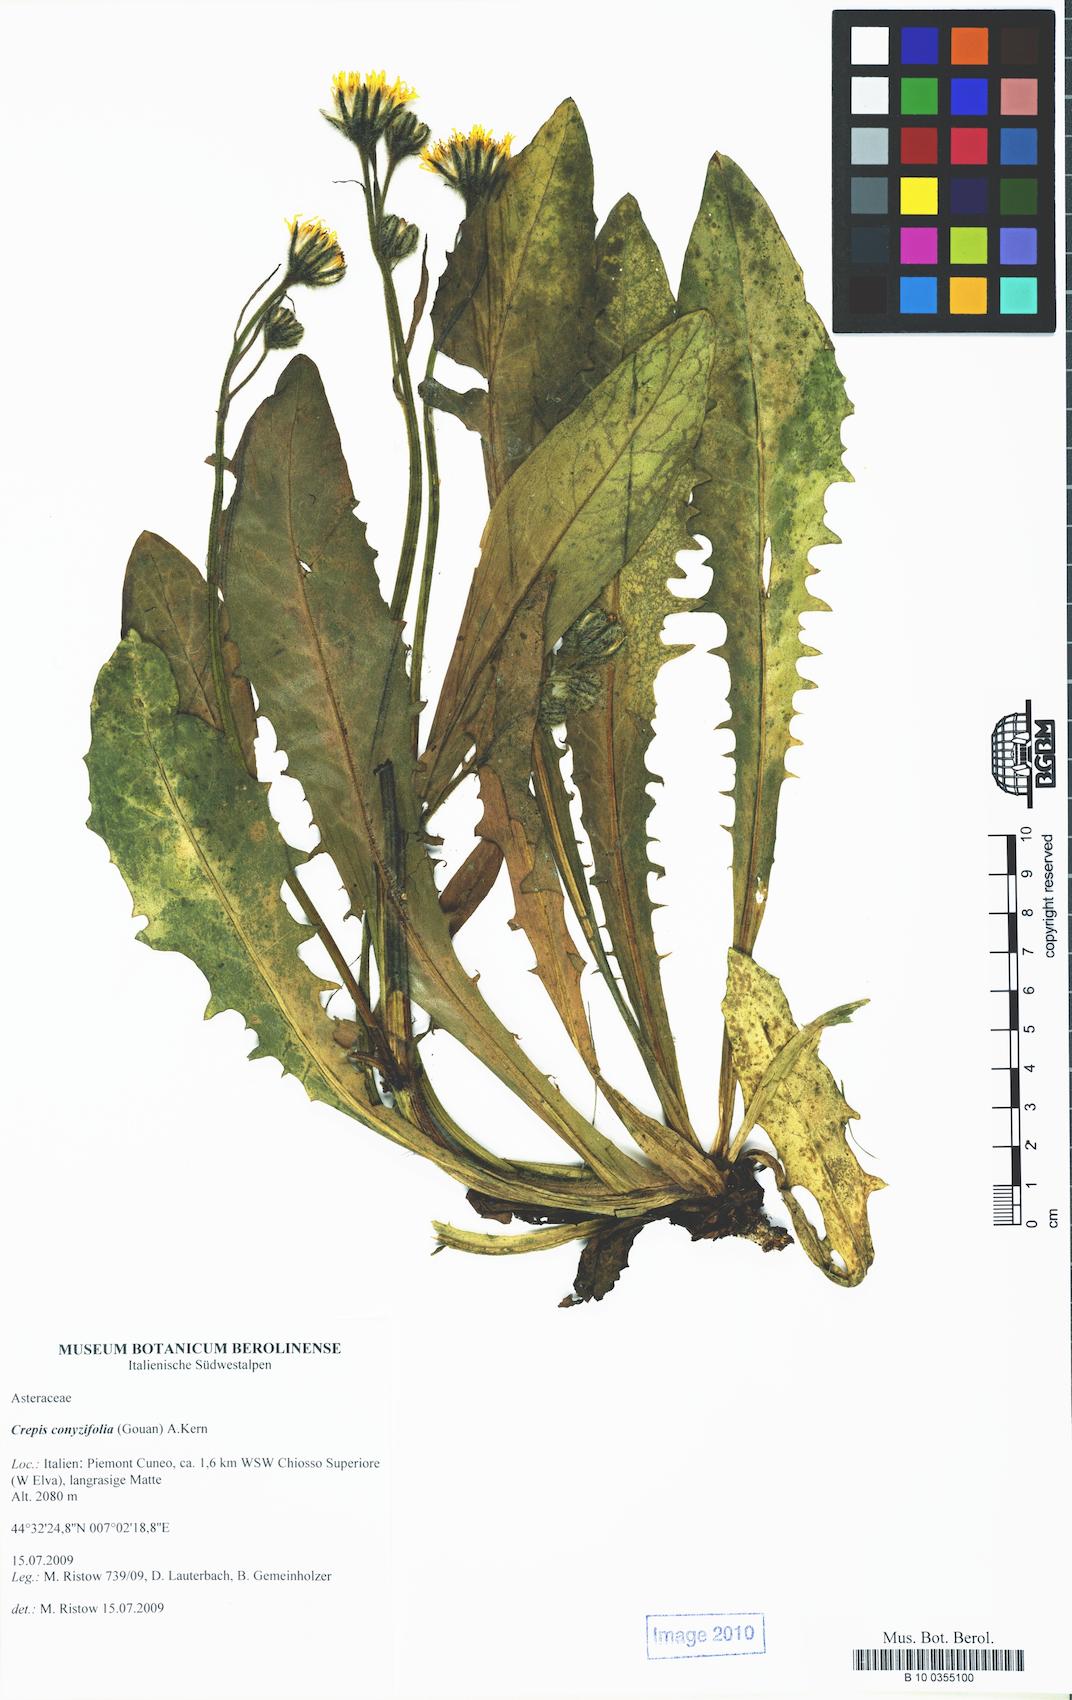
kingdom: Plantae
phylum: Tracheophyta
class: Magnoliopsida
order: Asterales
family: Asteraceae
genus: Crepis
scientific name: Crepis blattarioides
